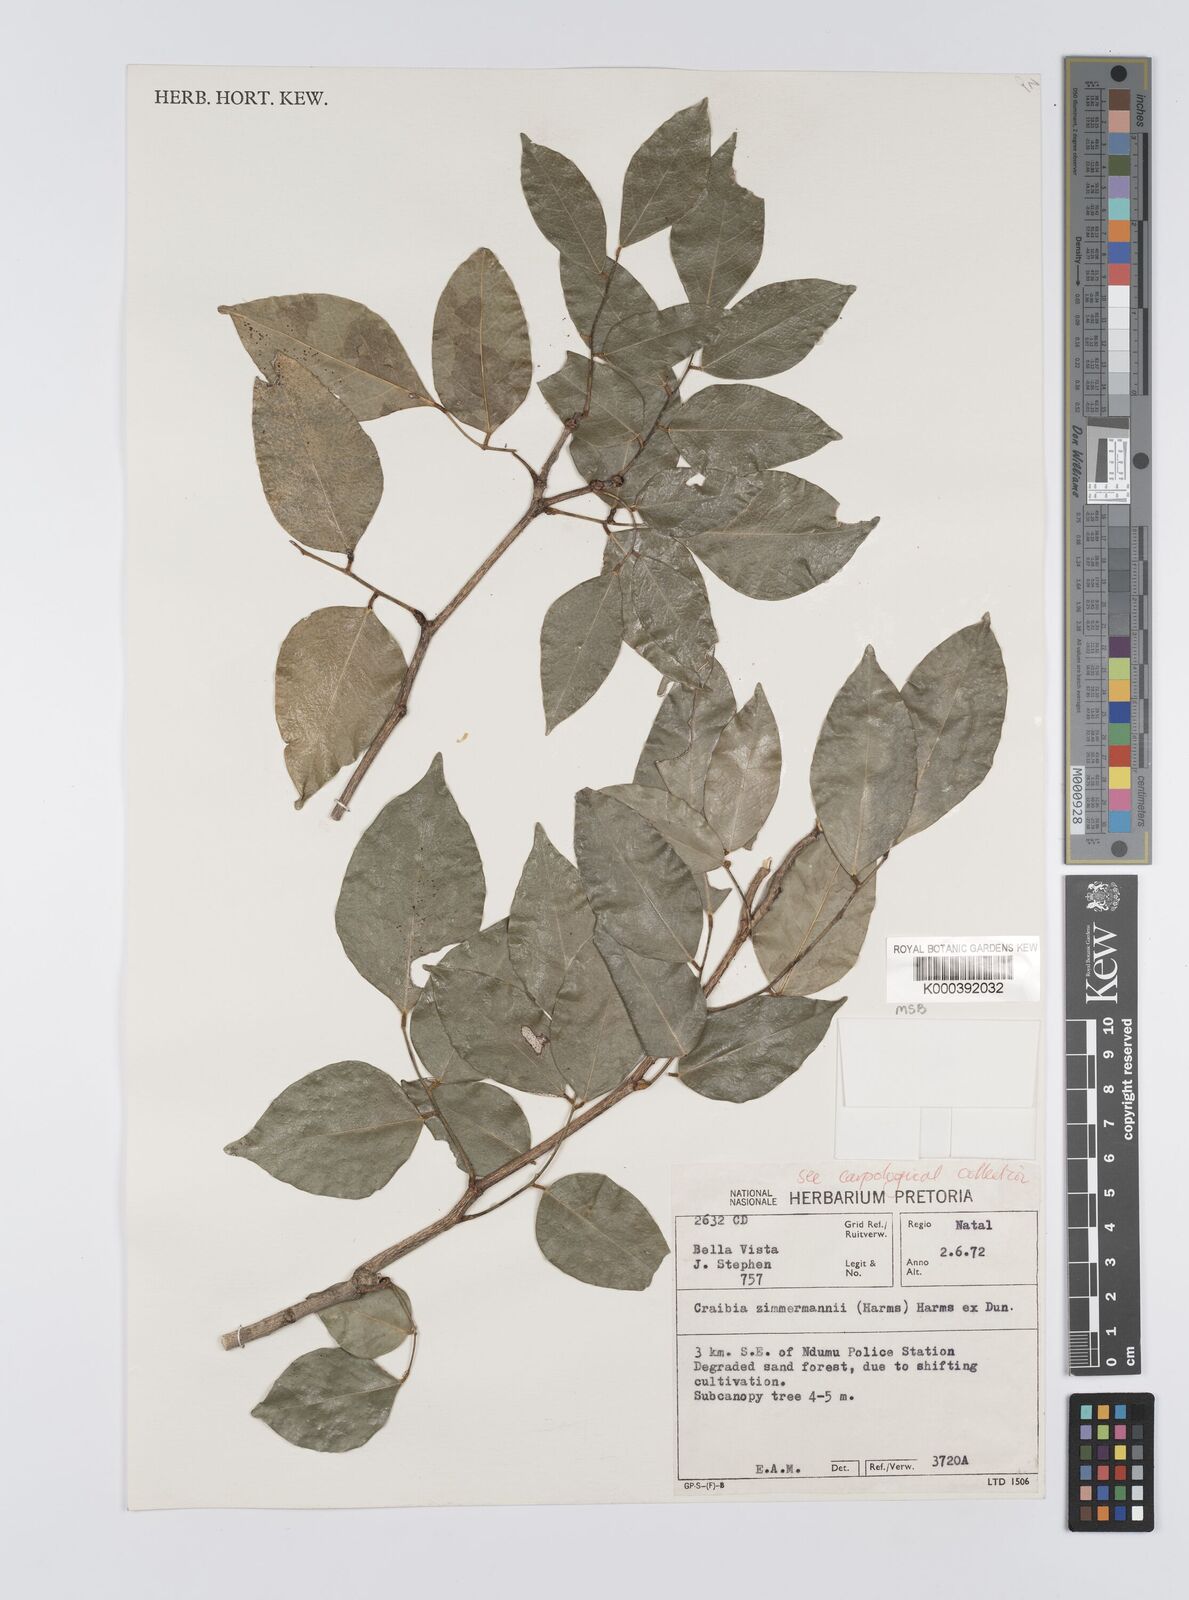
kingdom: Plantae
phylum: Tracheophyta
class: Magnoliopsida
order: Fabales
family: Fabaceae
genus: Craibia
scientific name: Craibia zimmermannii
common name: Sandforest pea-wood
